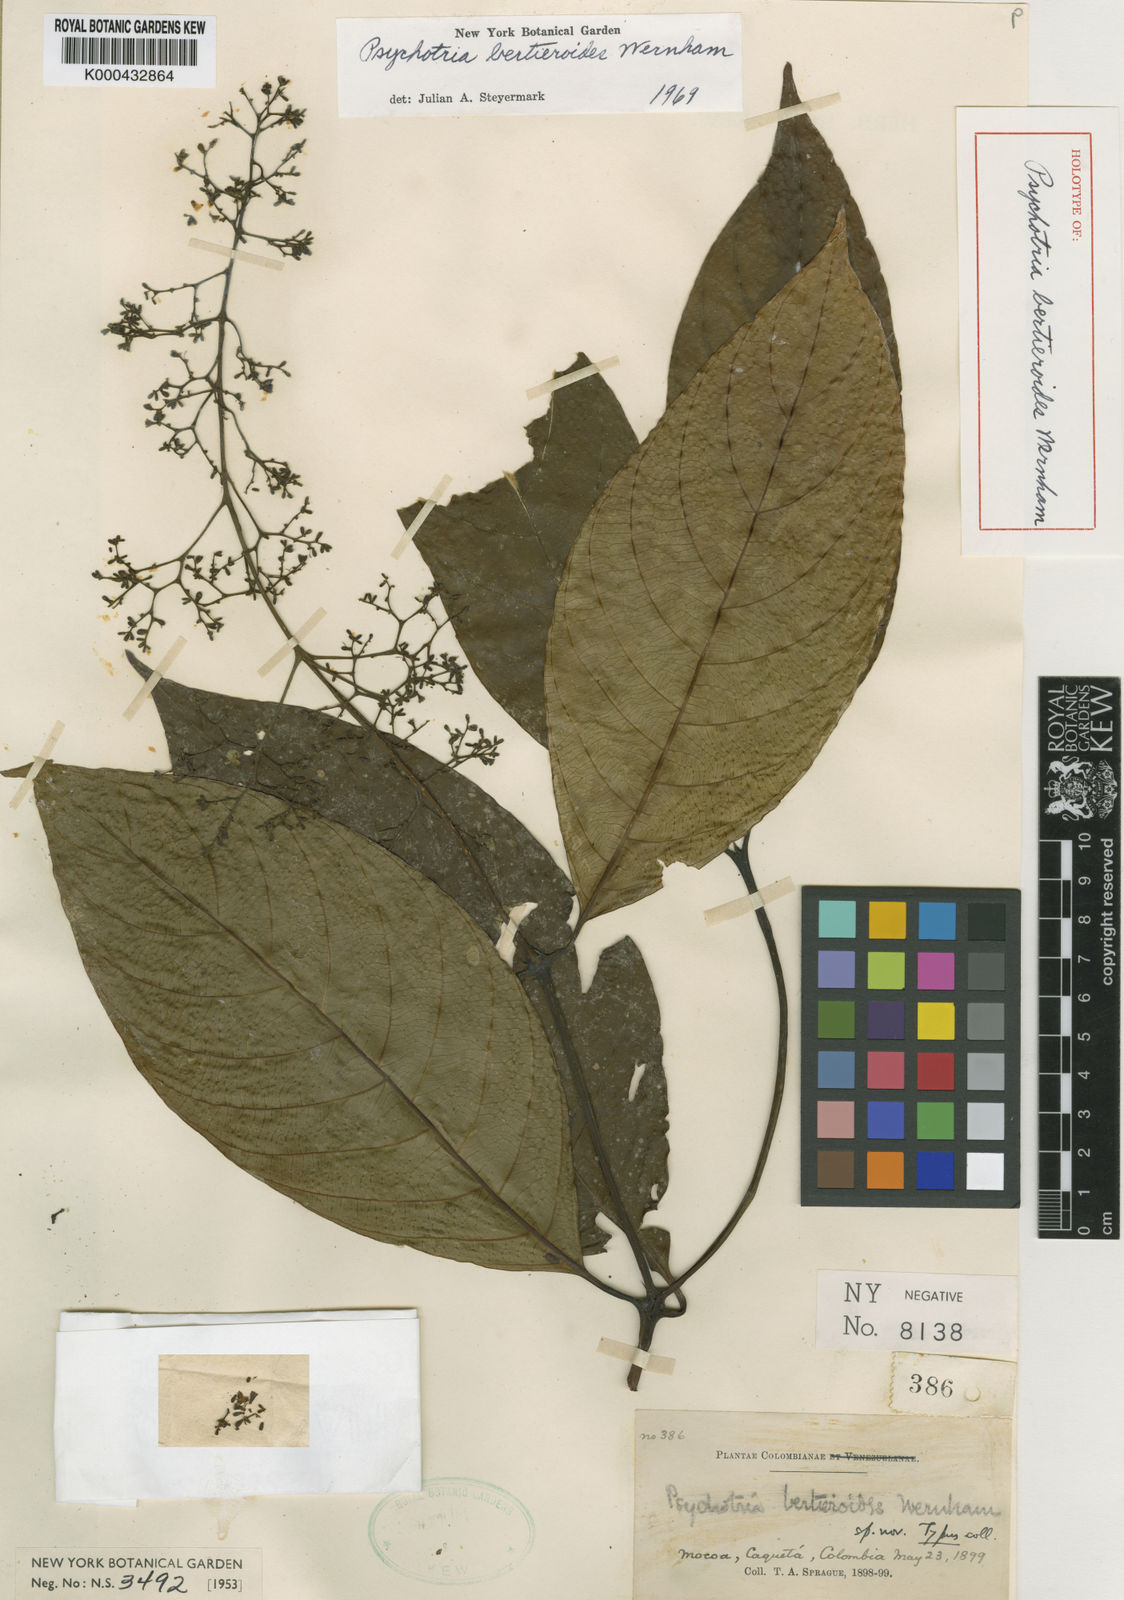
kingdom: Plantae
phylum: Tracheophyta
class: Magnoliopsida
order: Gentianales
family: Rubiaceae
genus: Palicourea
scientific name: Palicourea bertieroides
